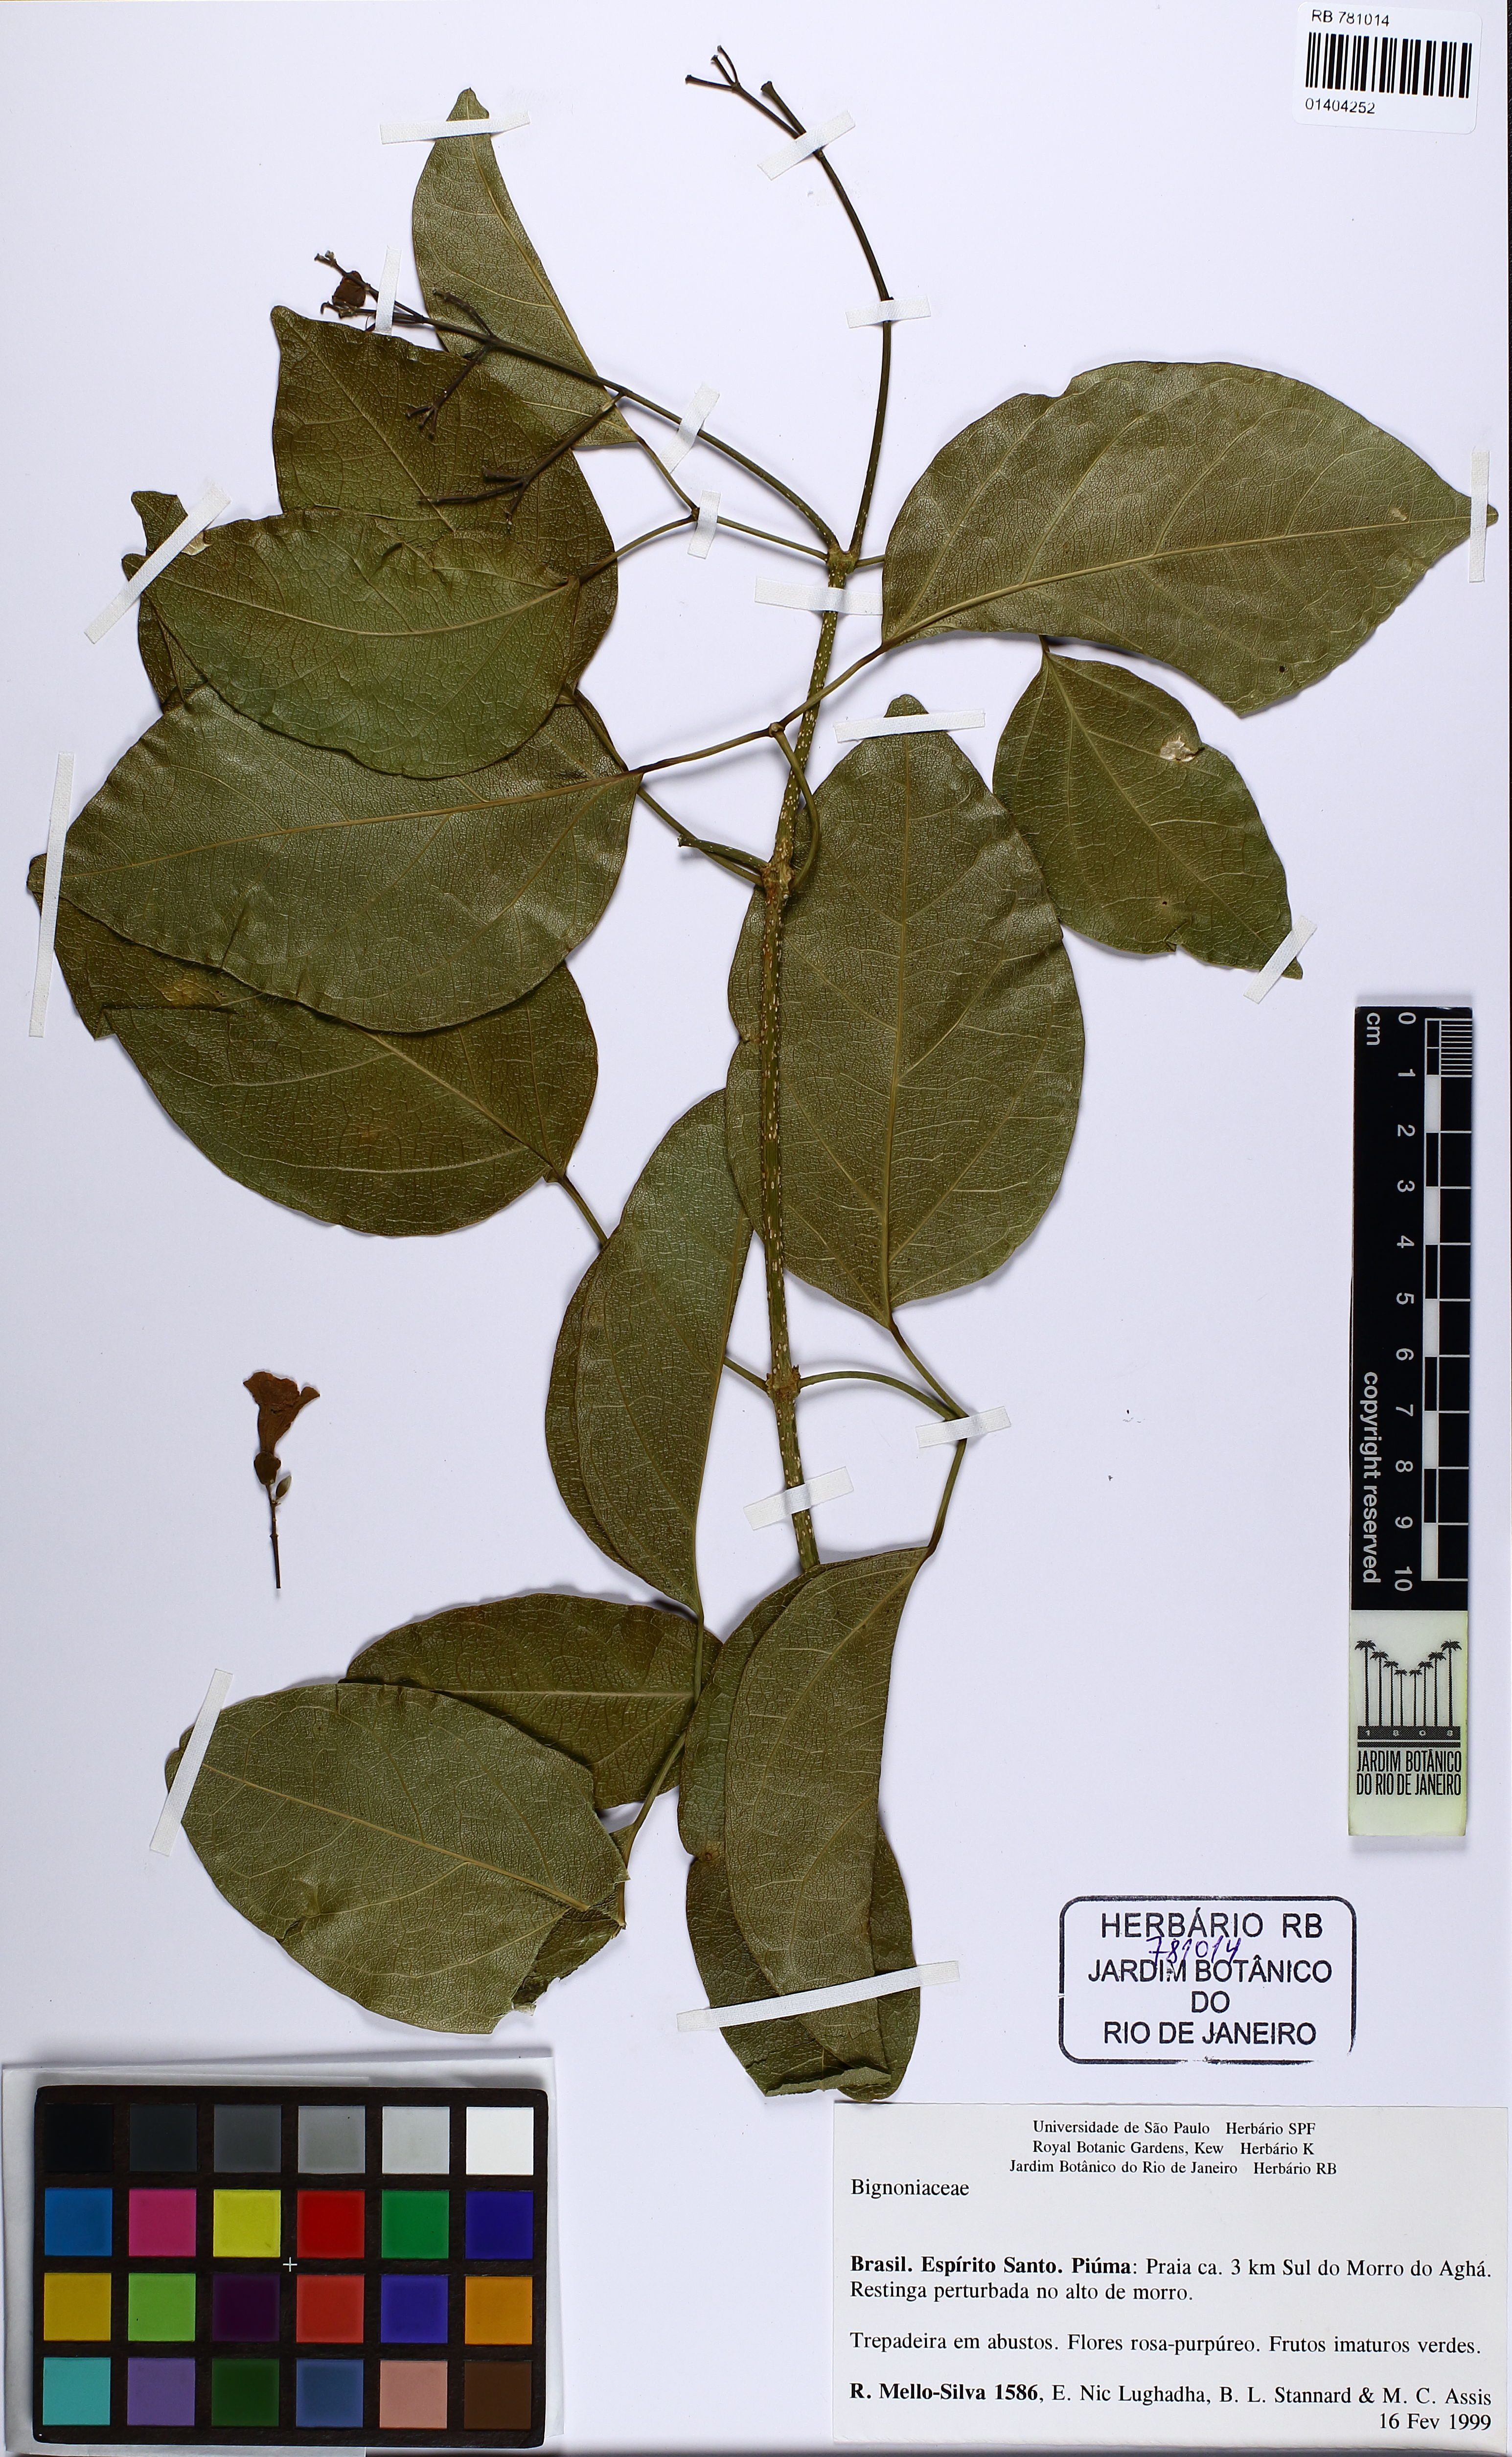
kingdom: Plantae
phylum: Tracheophyta
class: Magnoliopsida
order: Lamiales
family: Bignoniaceae
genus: Fridericia
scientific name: Fridericia conjugata
